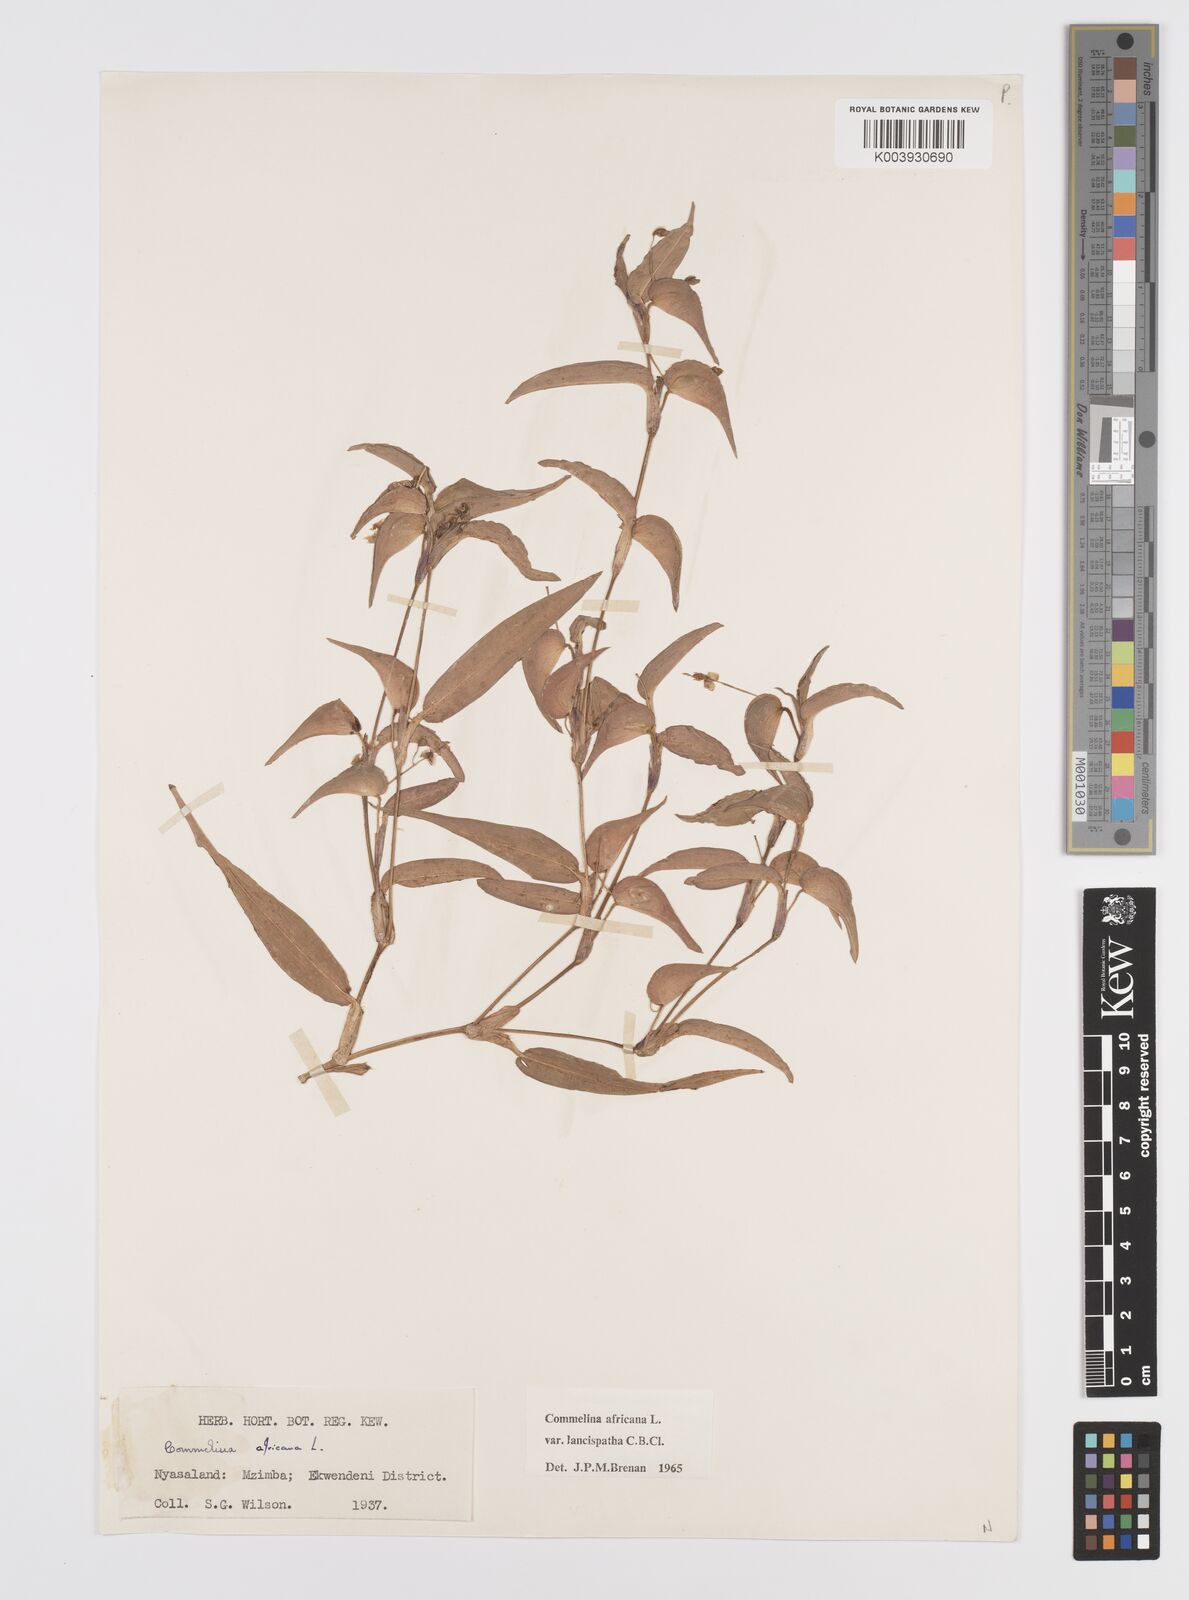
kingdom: Plantae
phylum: Tracheophyta
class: Liliopsida
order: Commelinales
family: Commelinaceae
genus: Commelina
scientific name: Commelina africana
